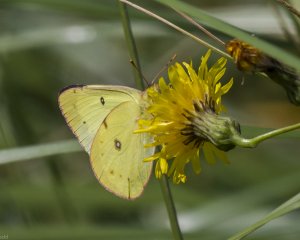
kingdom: Animalia
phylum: Arthropoda
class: Insecta
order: Lepidoptera
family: Pieridae
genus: Colias
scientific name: Colias philodice
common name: Clouded Sulphur
